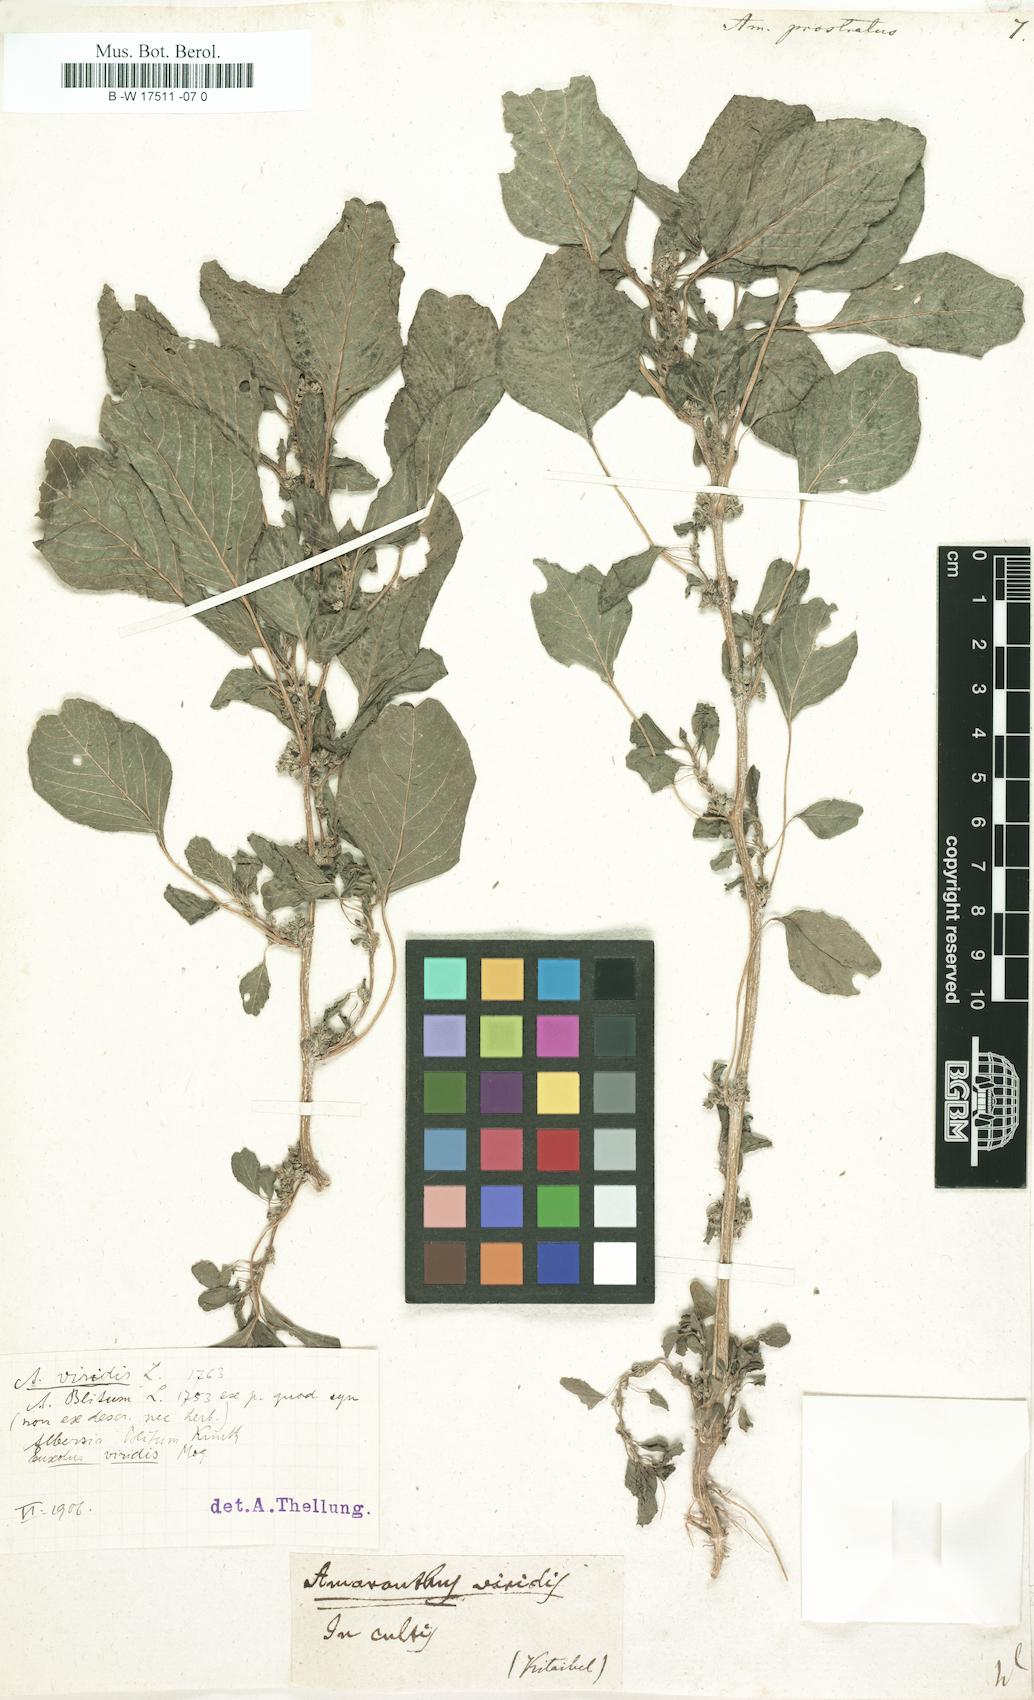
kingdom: Plantae
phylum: Tracheophyta
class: Magnoliopsida
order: Caryophyllales
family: Amaranthaceae
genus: Amaranthus
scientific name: Amaranthus deflexus
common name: Perennial pigweed
